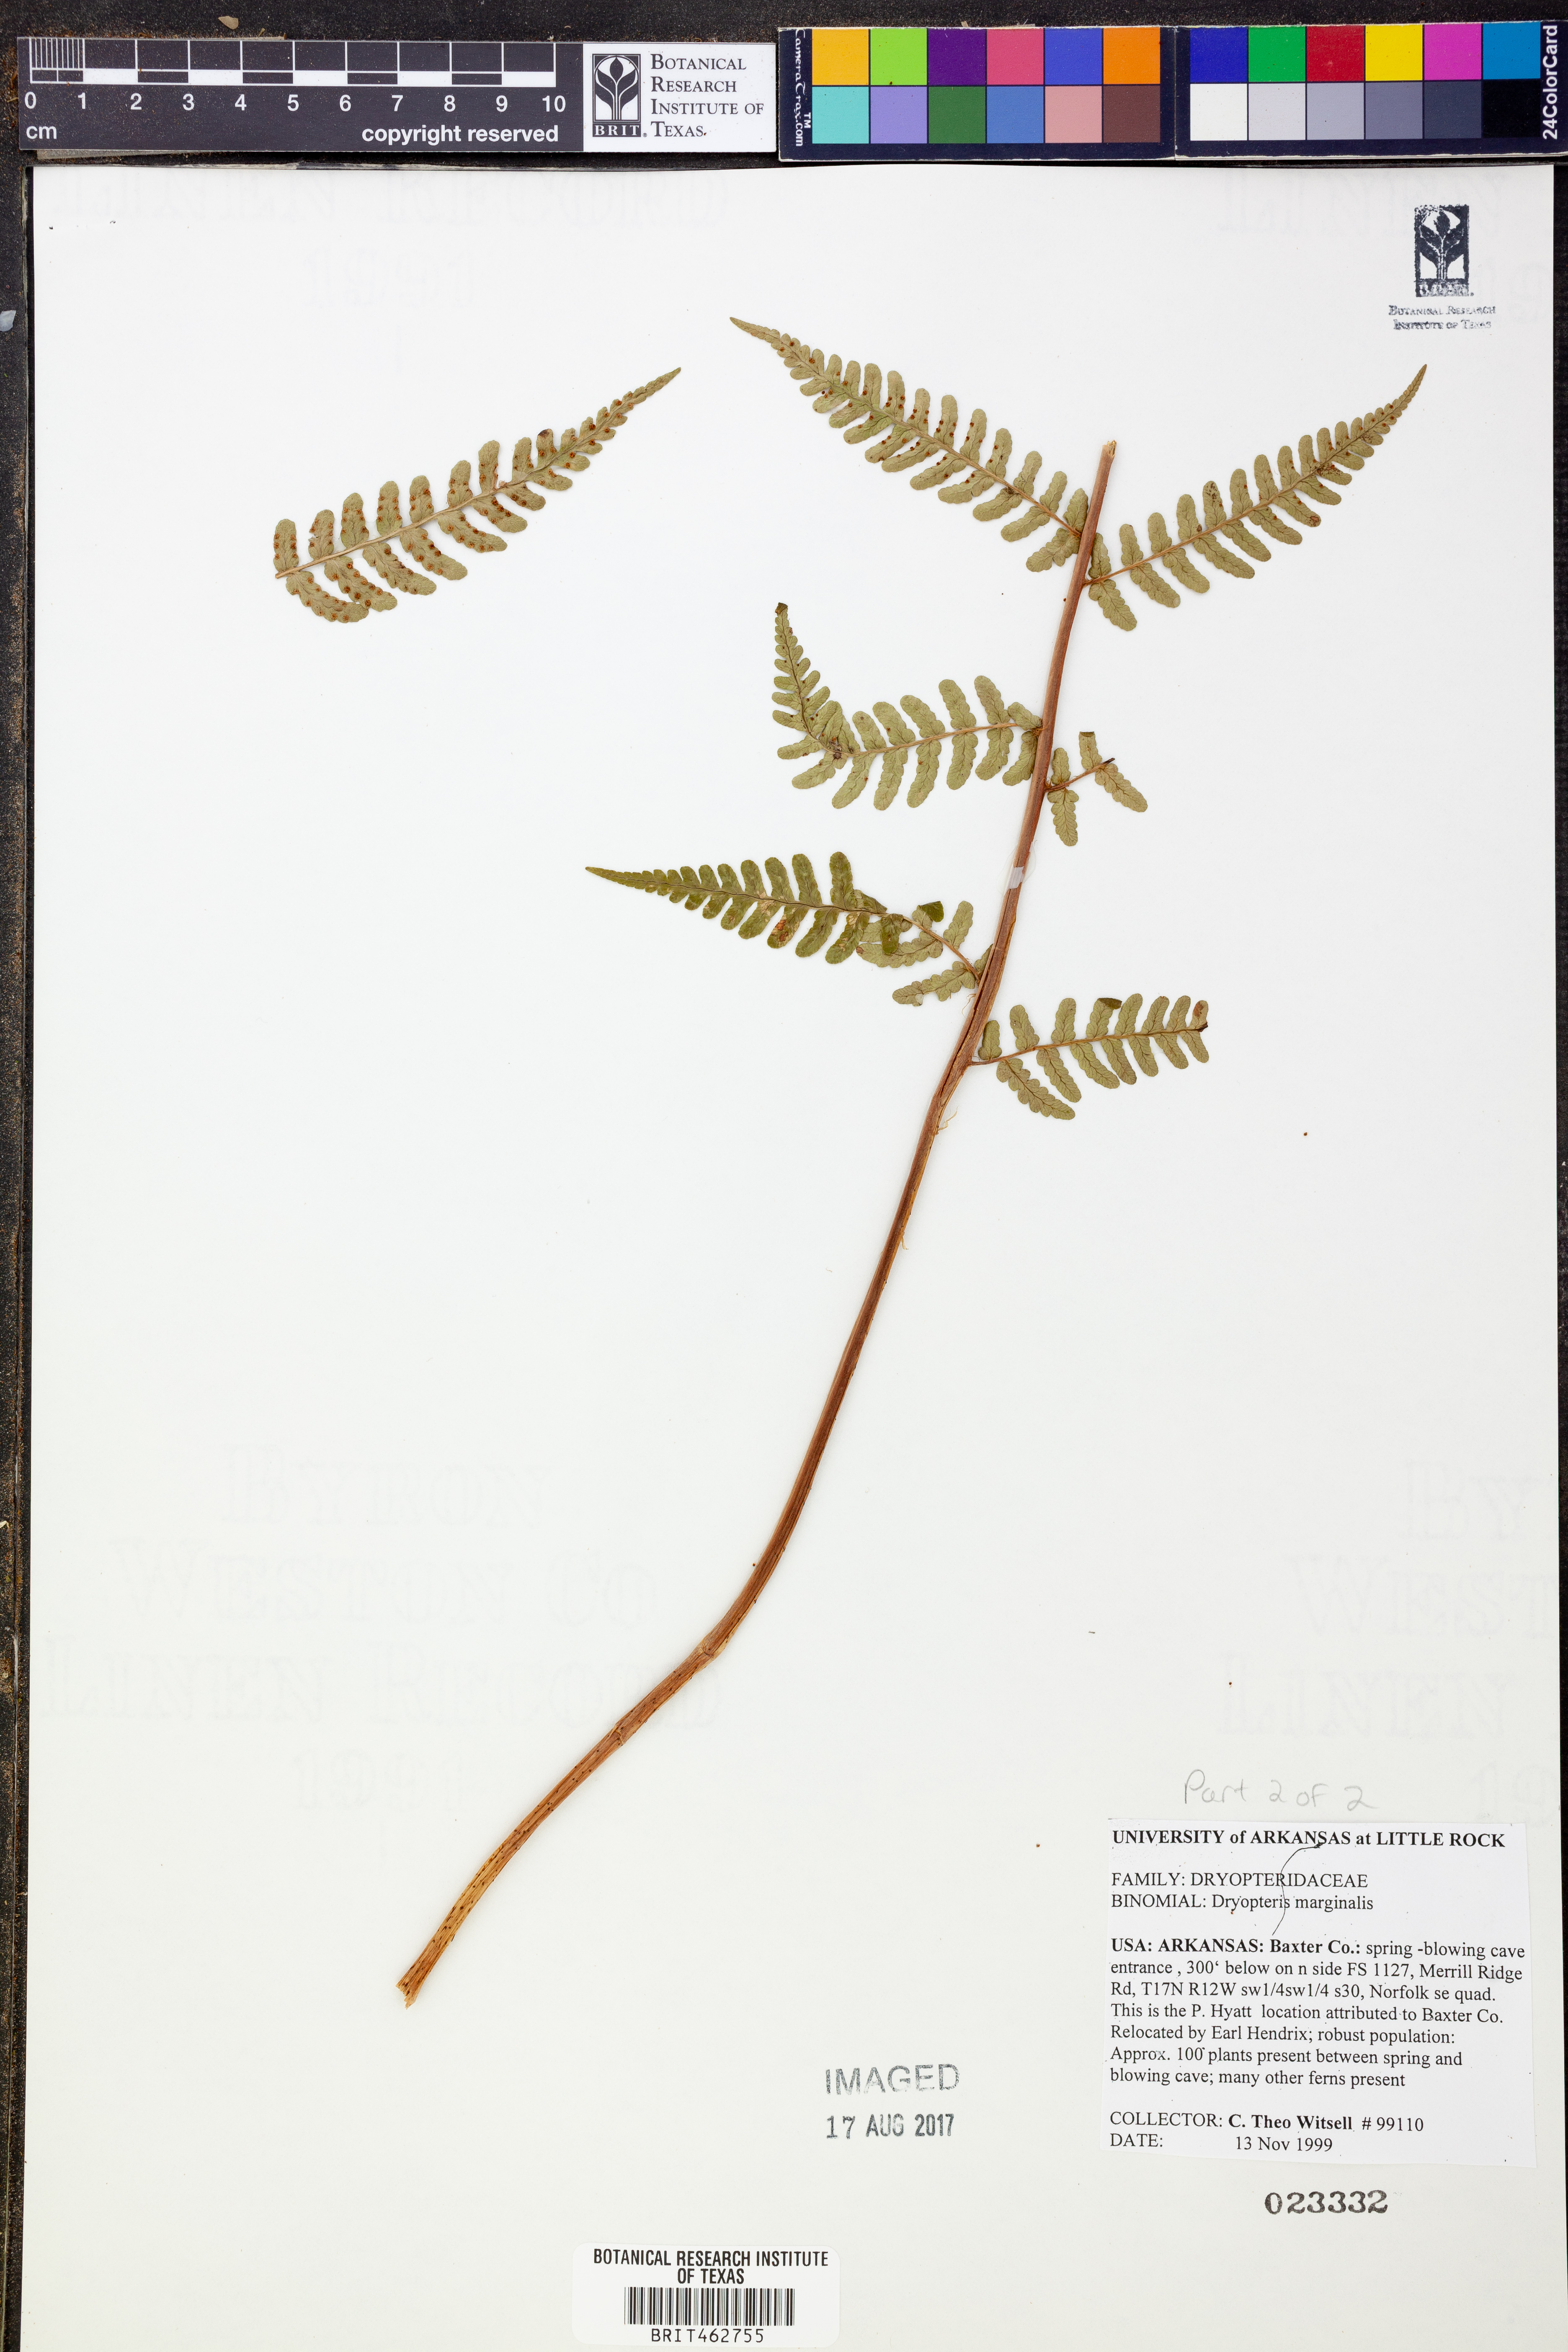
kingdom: Plantae
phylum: Tracheophyta
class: Polypodiopsida
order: Polypodiales
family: Dryopteridaceae
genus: Dryopteris
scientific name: Dryopteris marginalis
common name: Marginal wood fern
